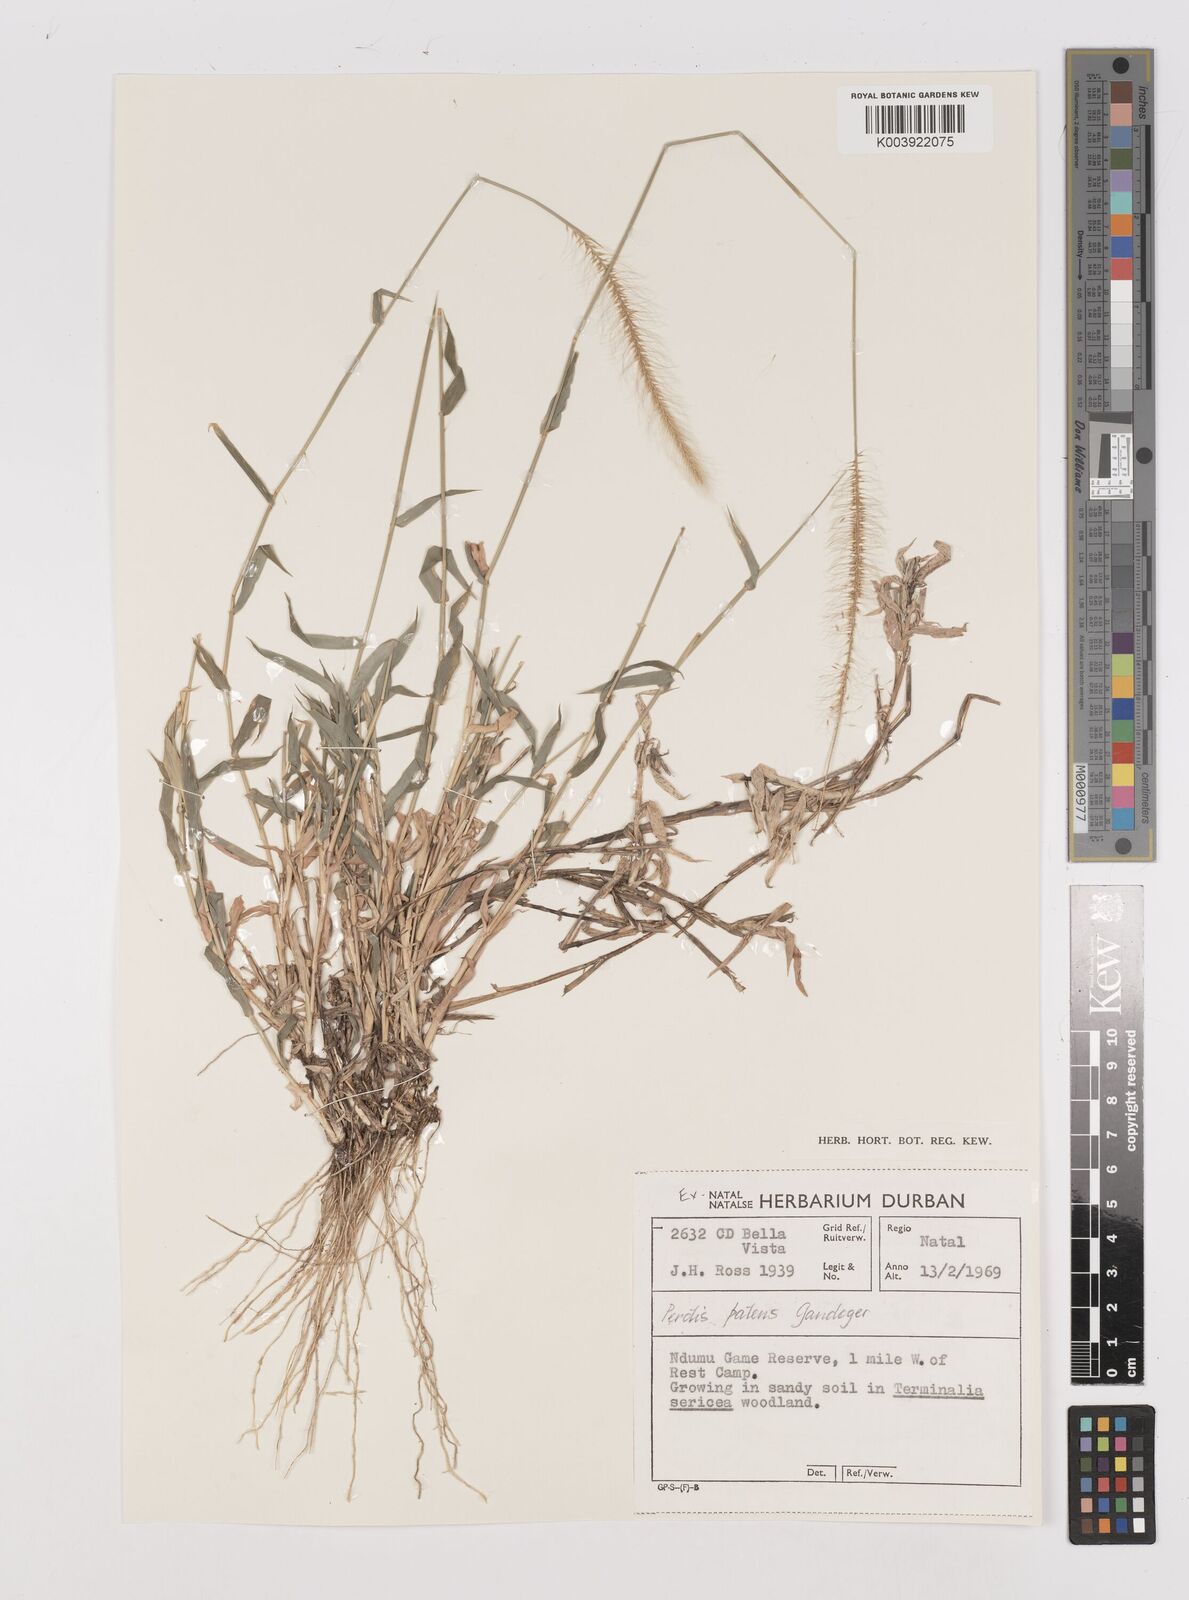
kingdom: Plantae
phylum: Tracheophyta
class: Liliopsida
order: Poales
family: Poaceae
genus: Perotis
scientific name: Perotis patens
